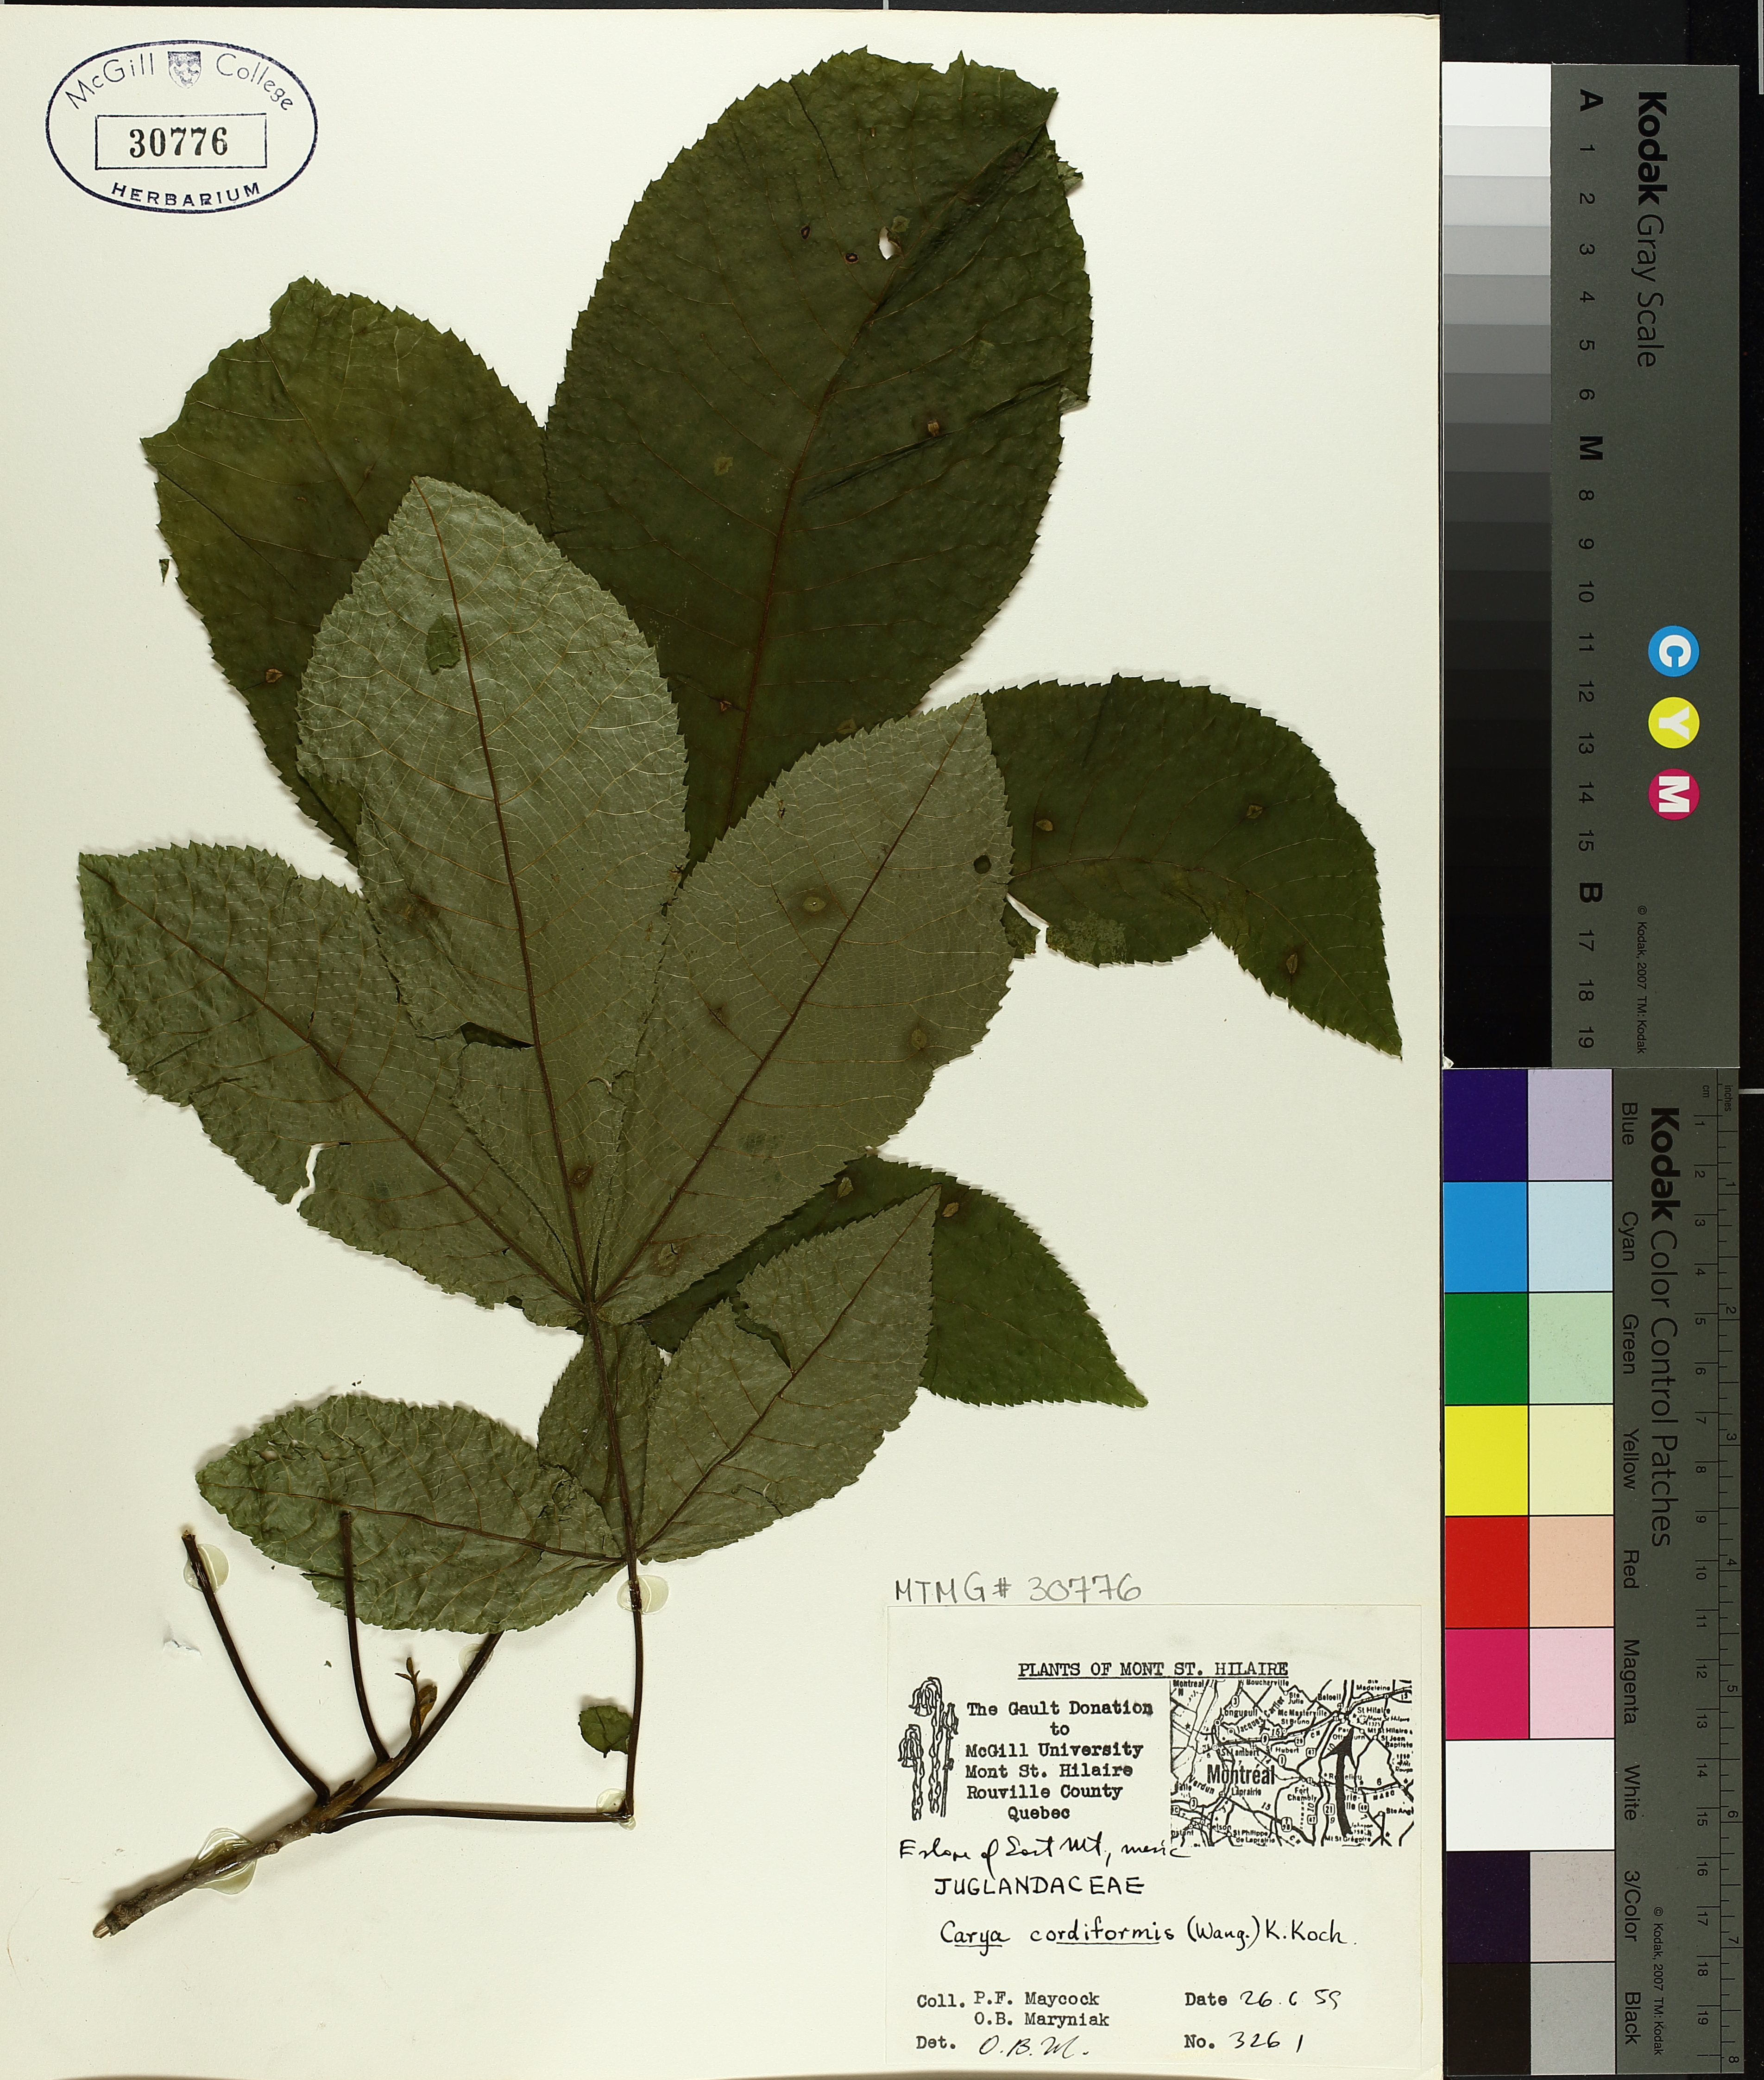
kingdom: Plantae
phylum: Tracheophyta
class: Magnoliopsida
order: Fagales
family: Juglandaceae
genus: Carya
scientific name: Carya cordiformis
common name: Bitternut hickory
